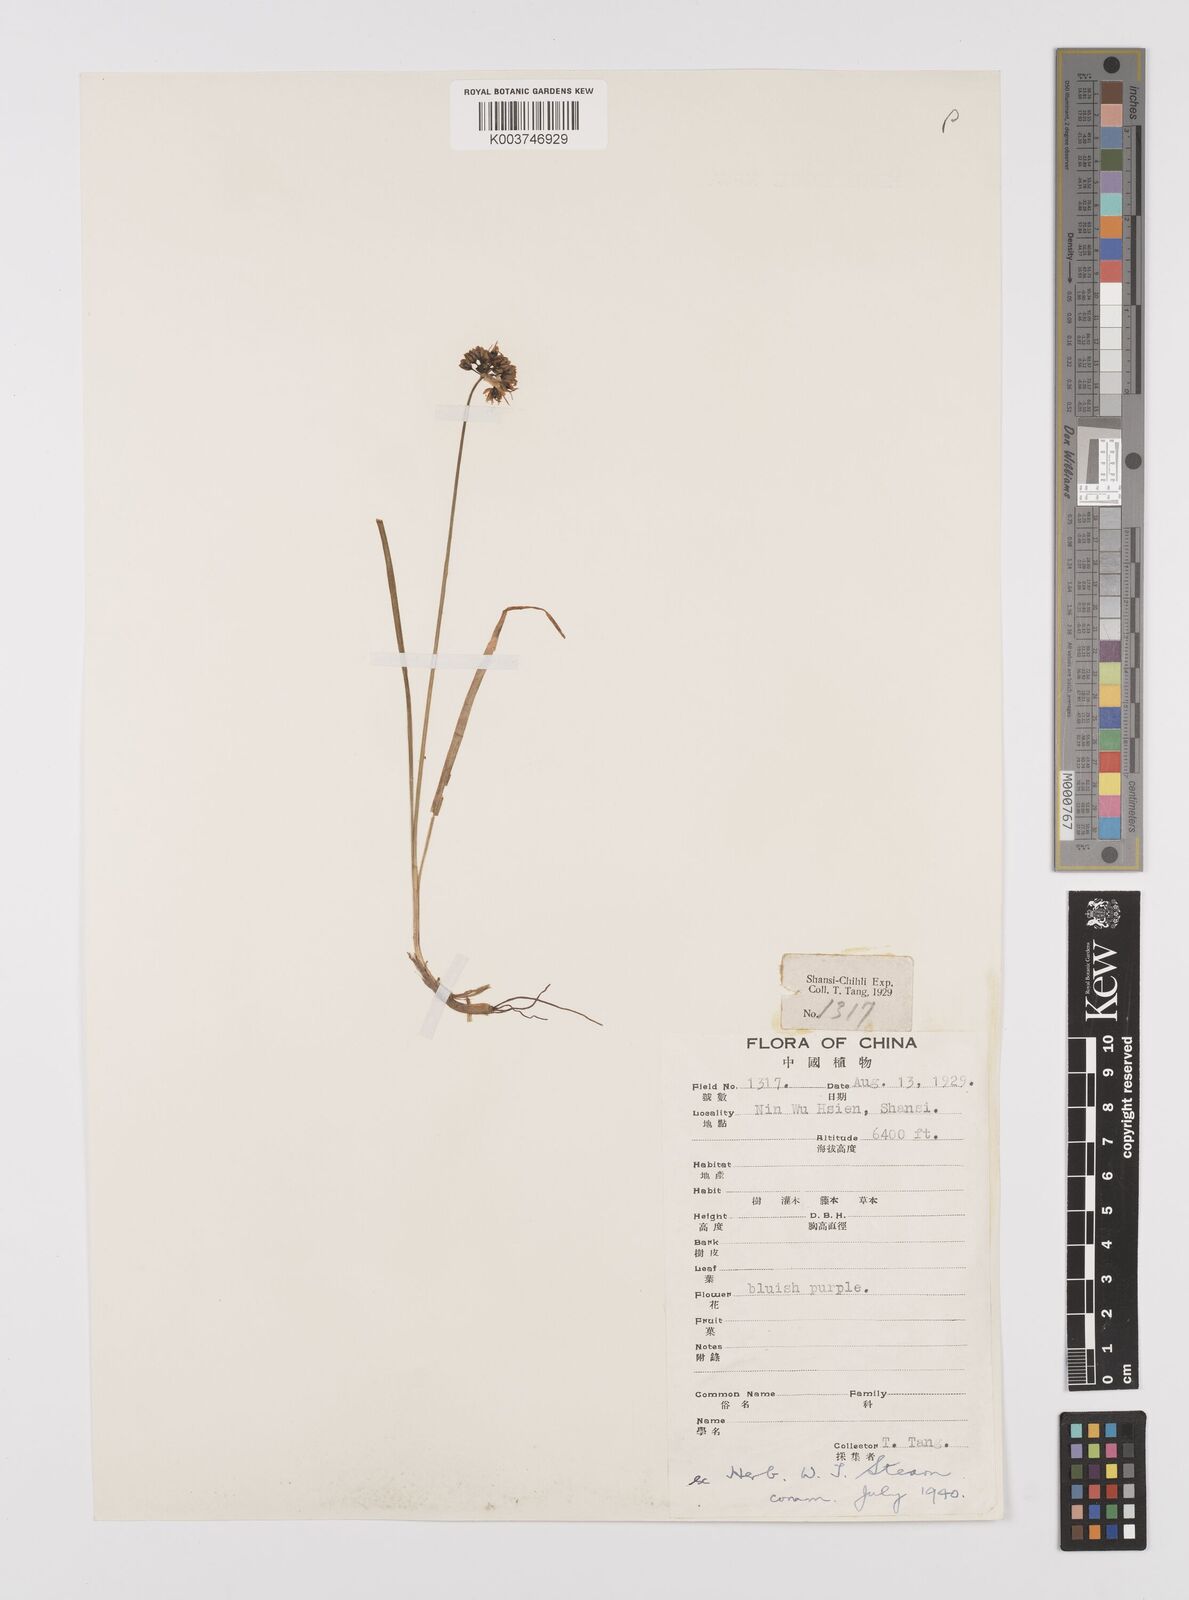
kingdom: Plantae
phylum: Tracheophyta
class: Liliopsida
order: Asparagales
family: Amaryllidaceae
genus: Allium
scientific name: Allium
